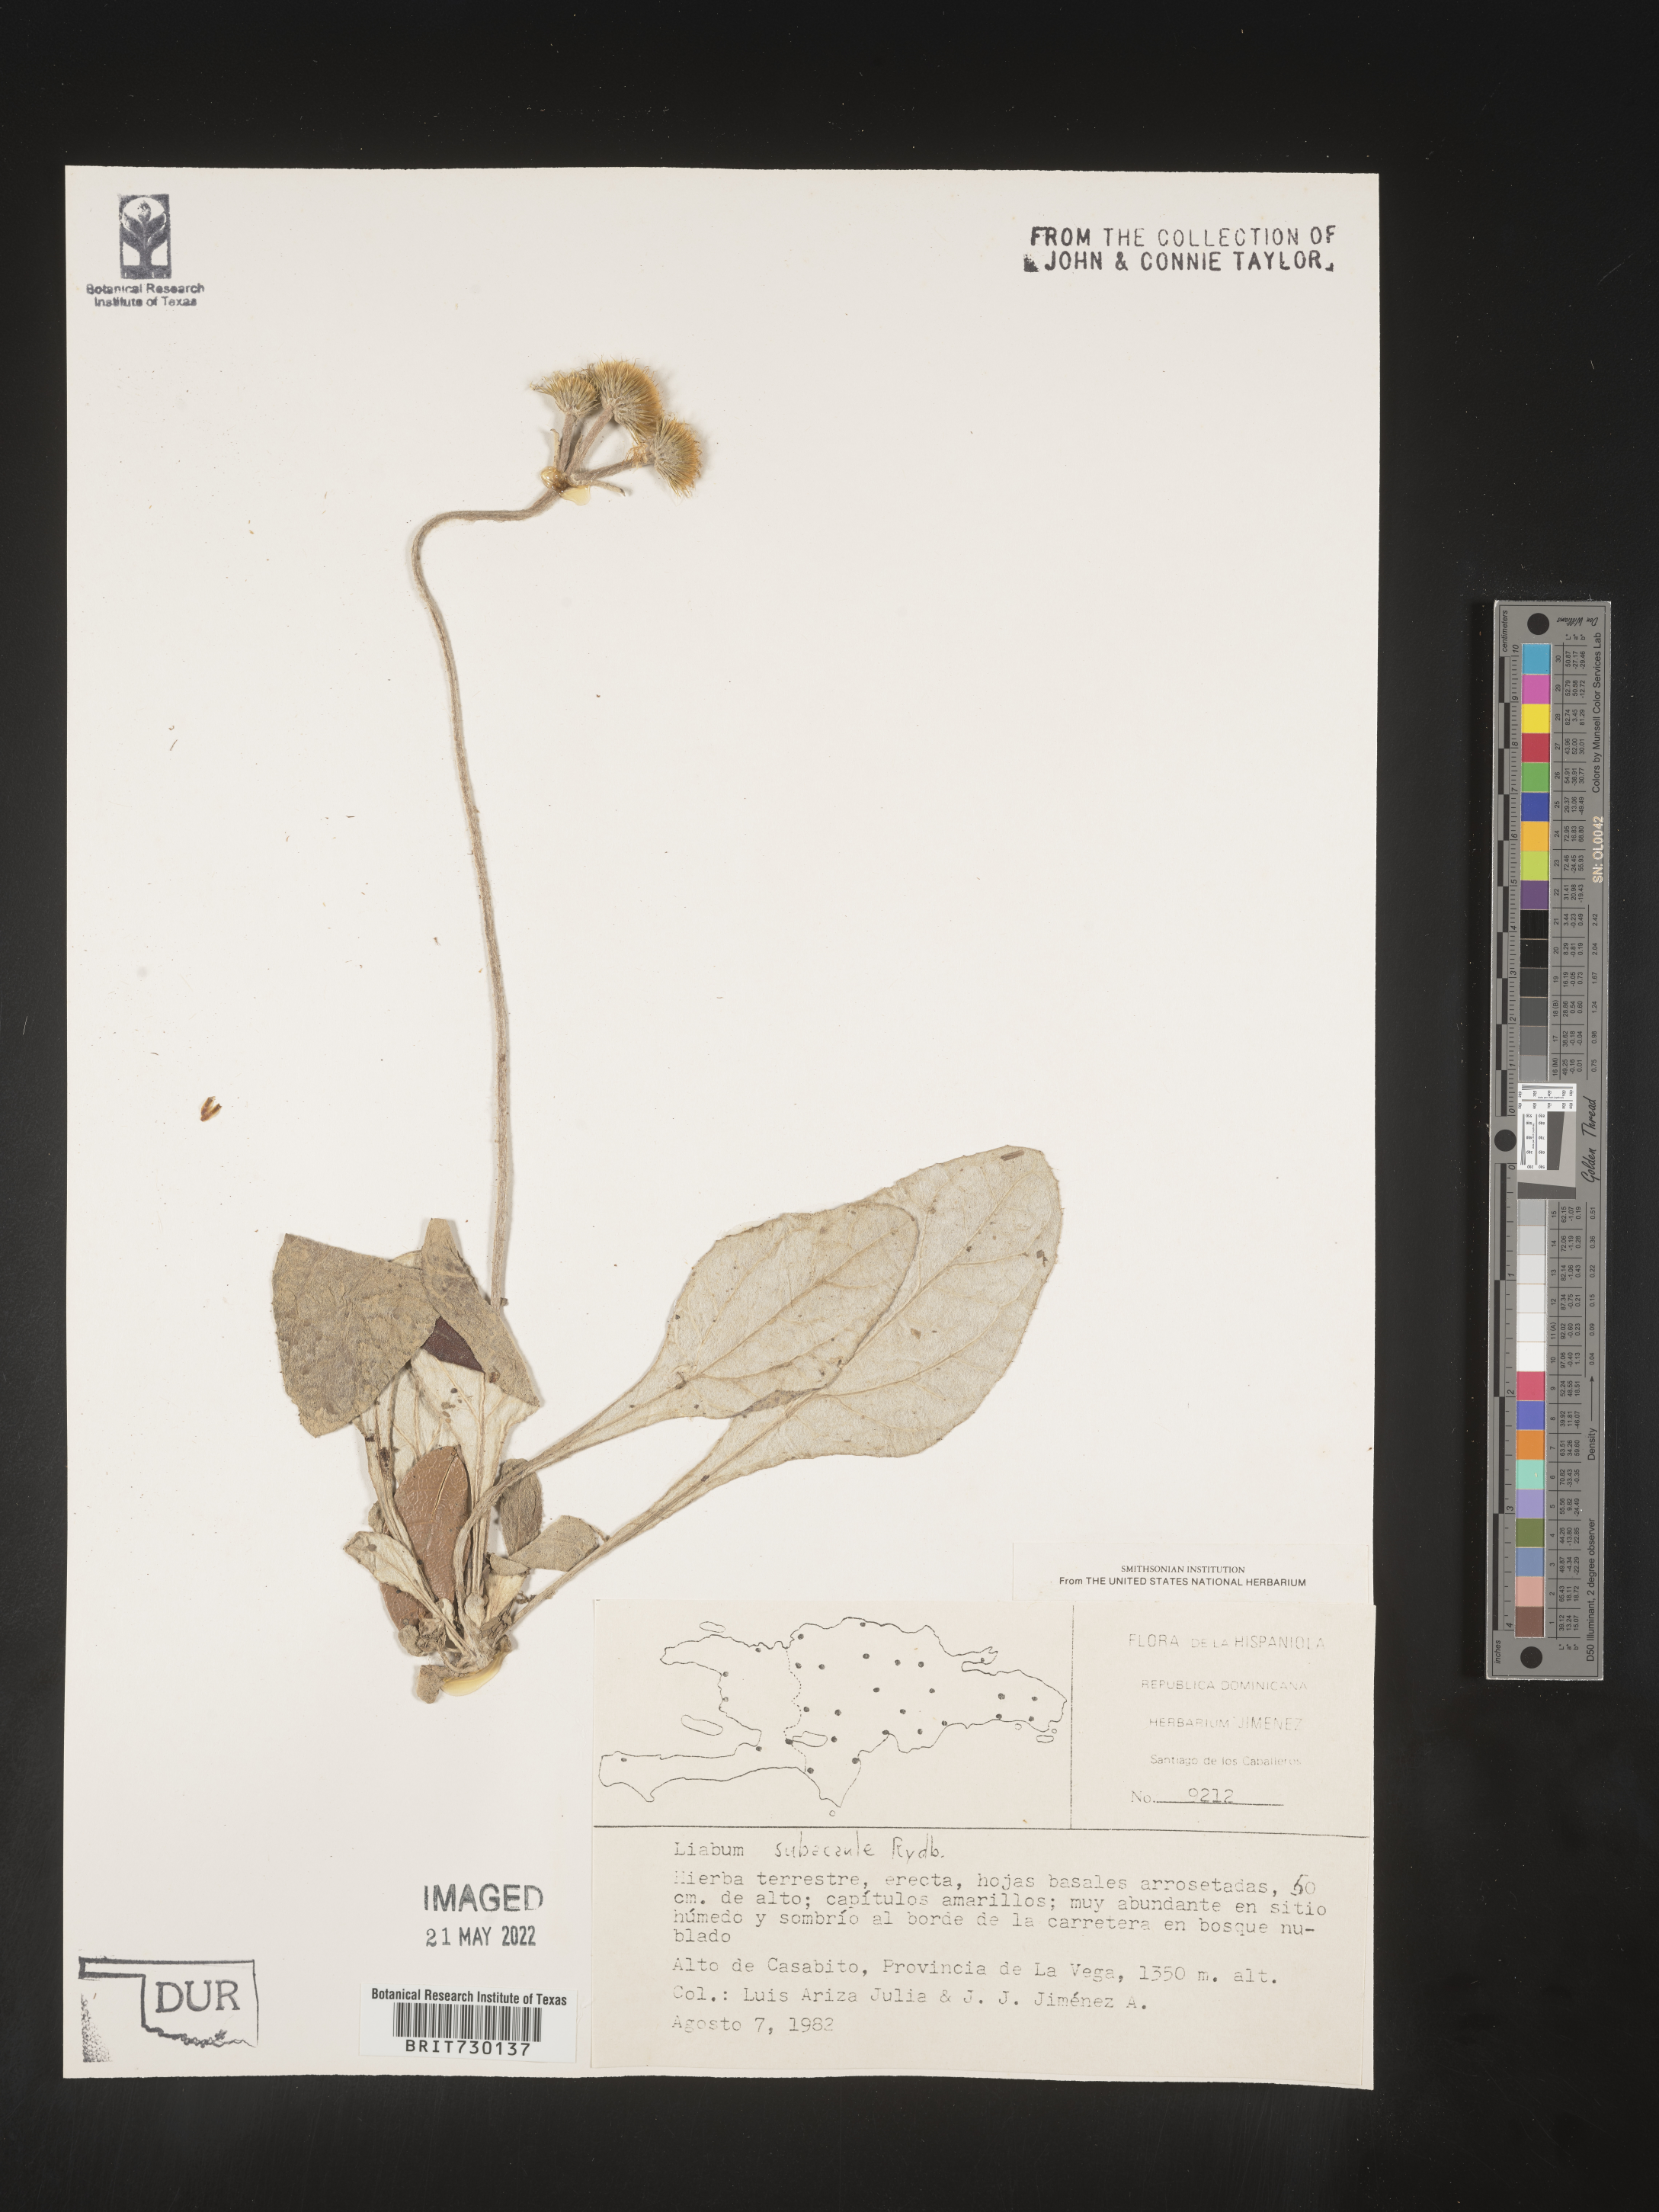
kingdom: Plantae
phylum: Tracheophyta
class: Magnoliopsida
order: Asterales
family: Asteraceae
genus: Liabum
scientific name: Liabum
